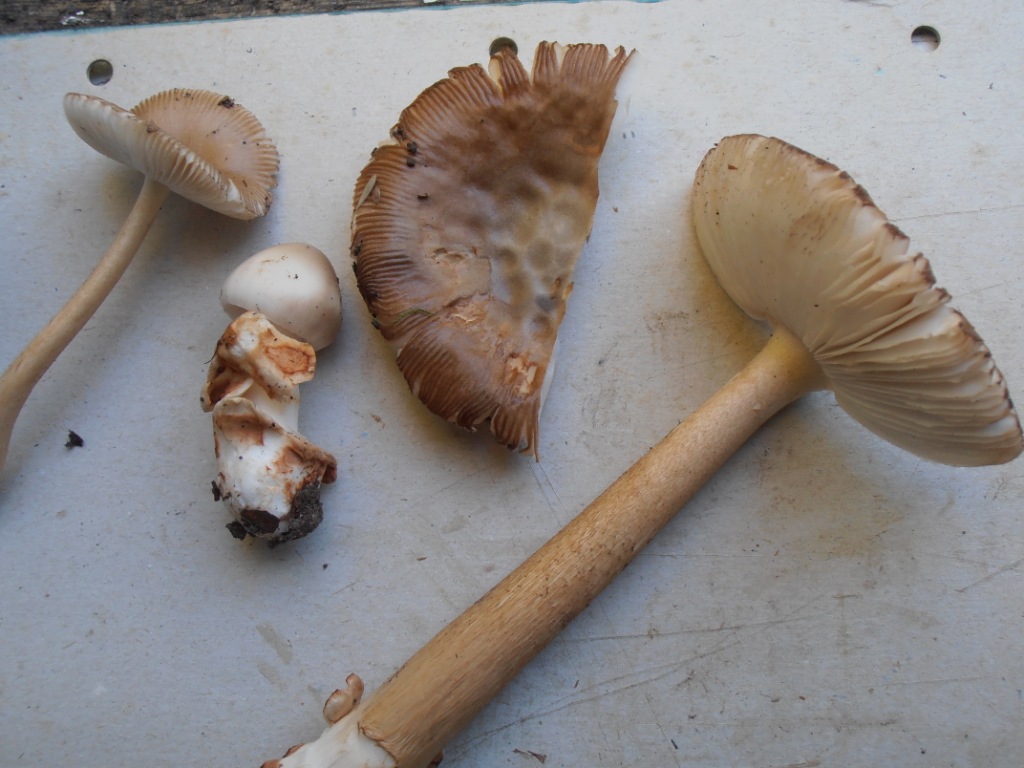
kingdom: Fungi
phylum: Basidiomycota
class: Agaricomycetes
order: Agaricales
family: Amanitaceae
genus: Amanita
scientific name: Amanita fulva
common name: brun kam-fluesvamp
